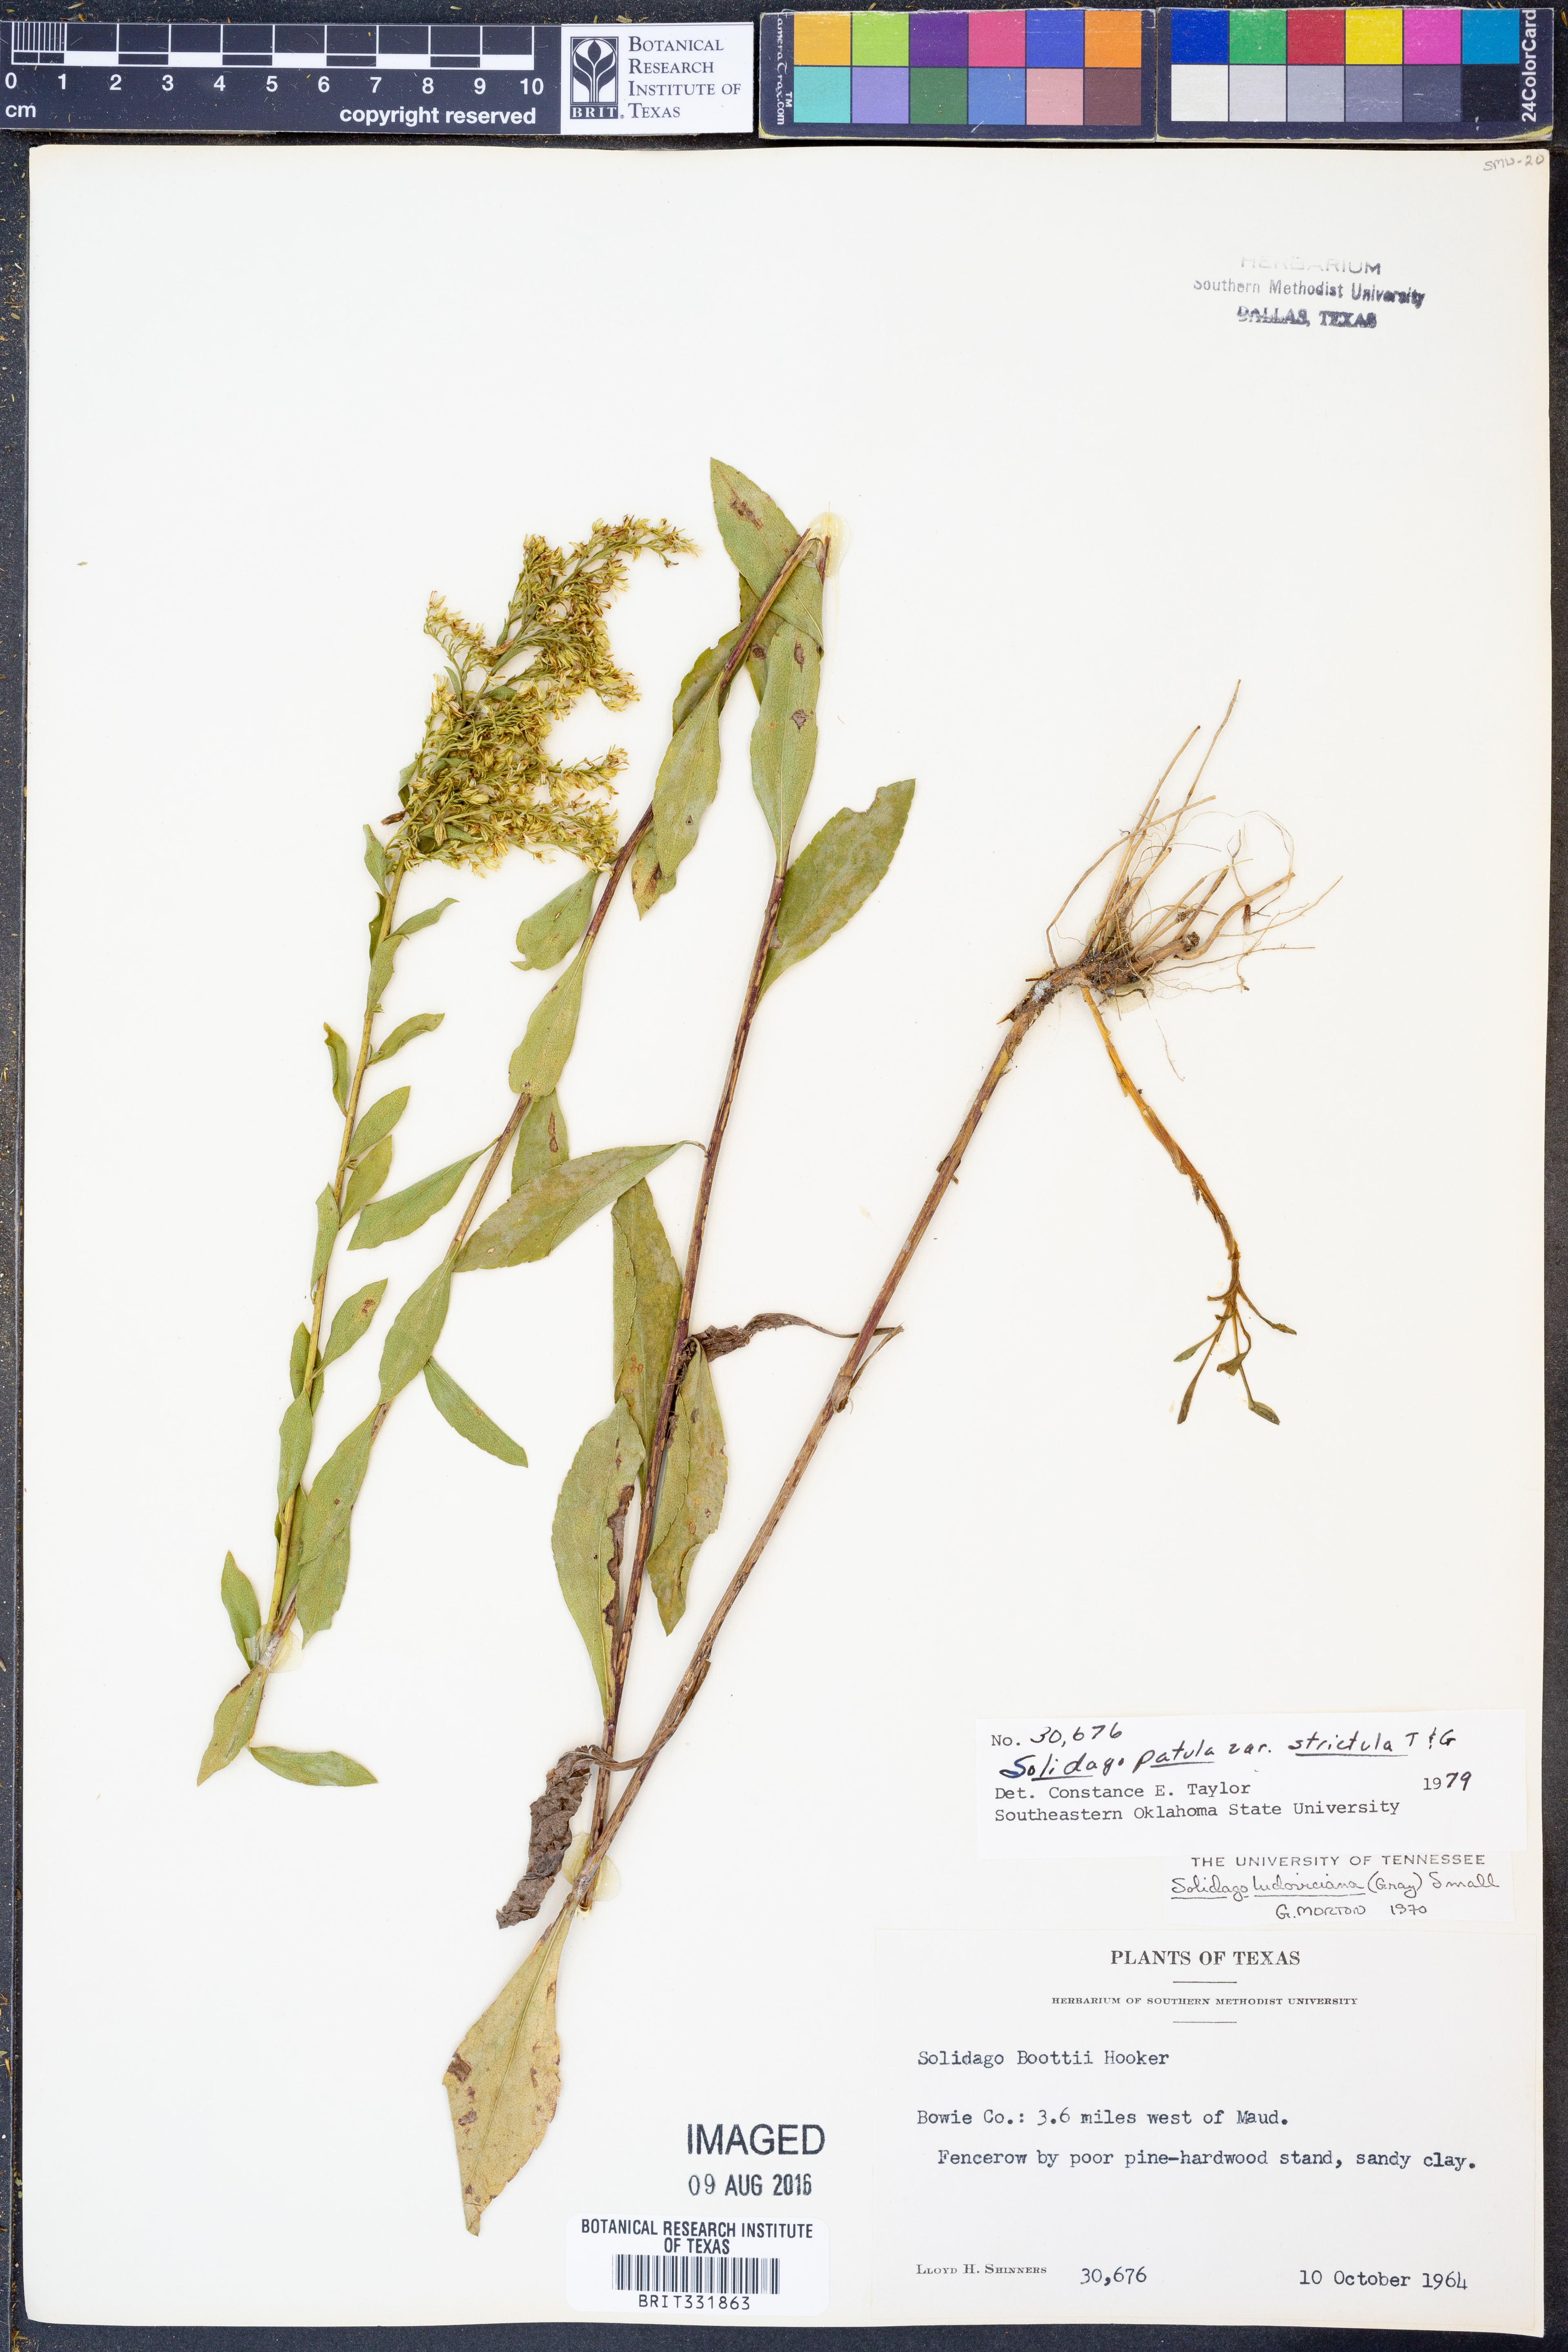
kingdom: Plantae
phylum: Tracheophyta
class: Magnoliopsida
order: Asterales
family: Asteraceae
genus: Solidago
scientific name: Solidago salicina
